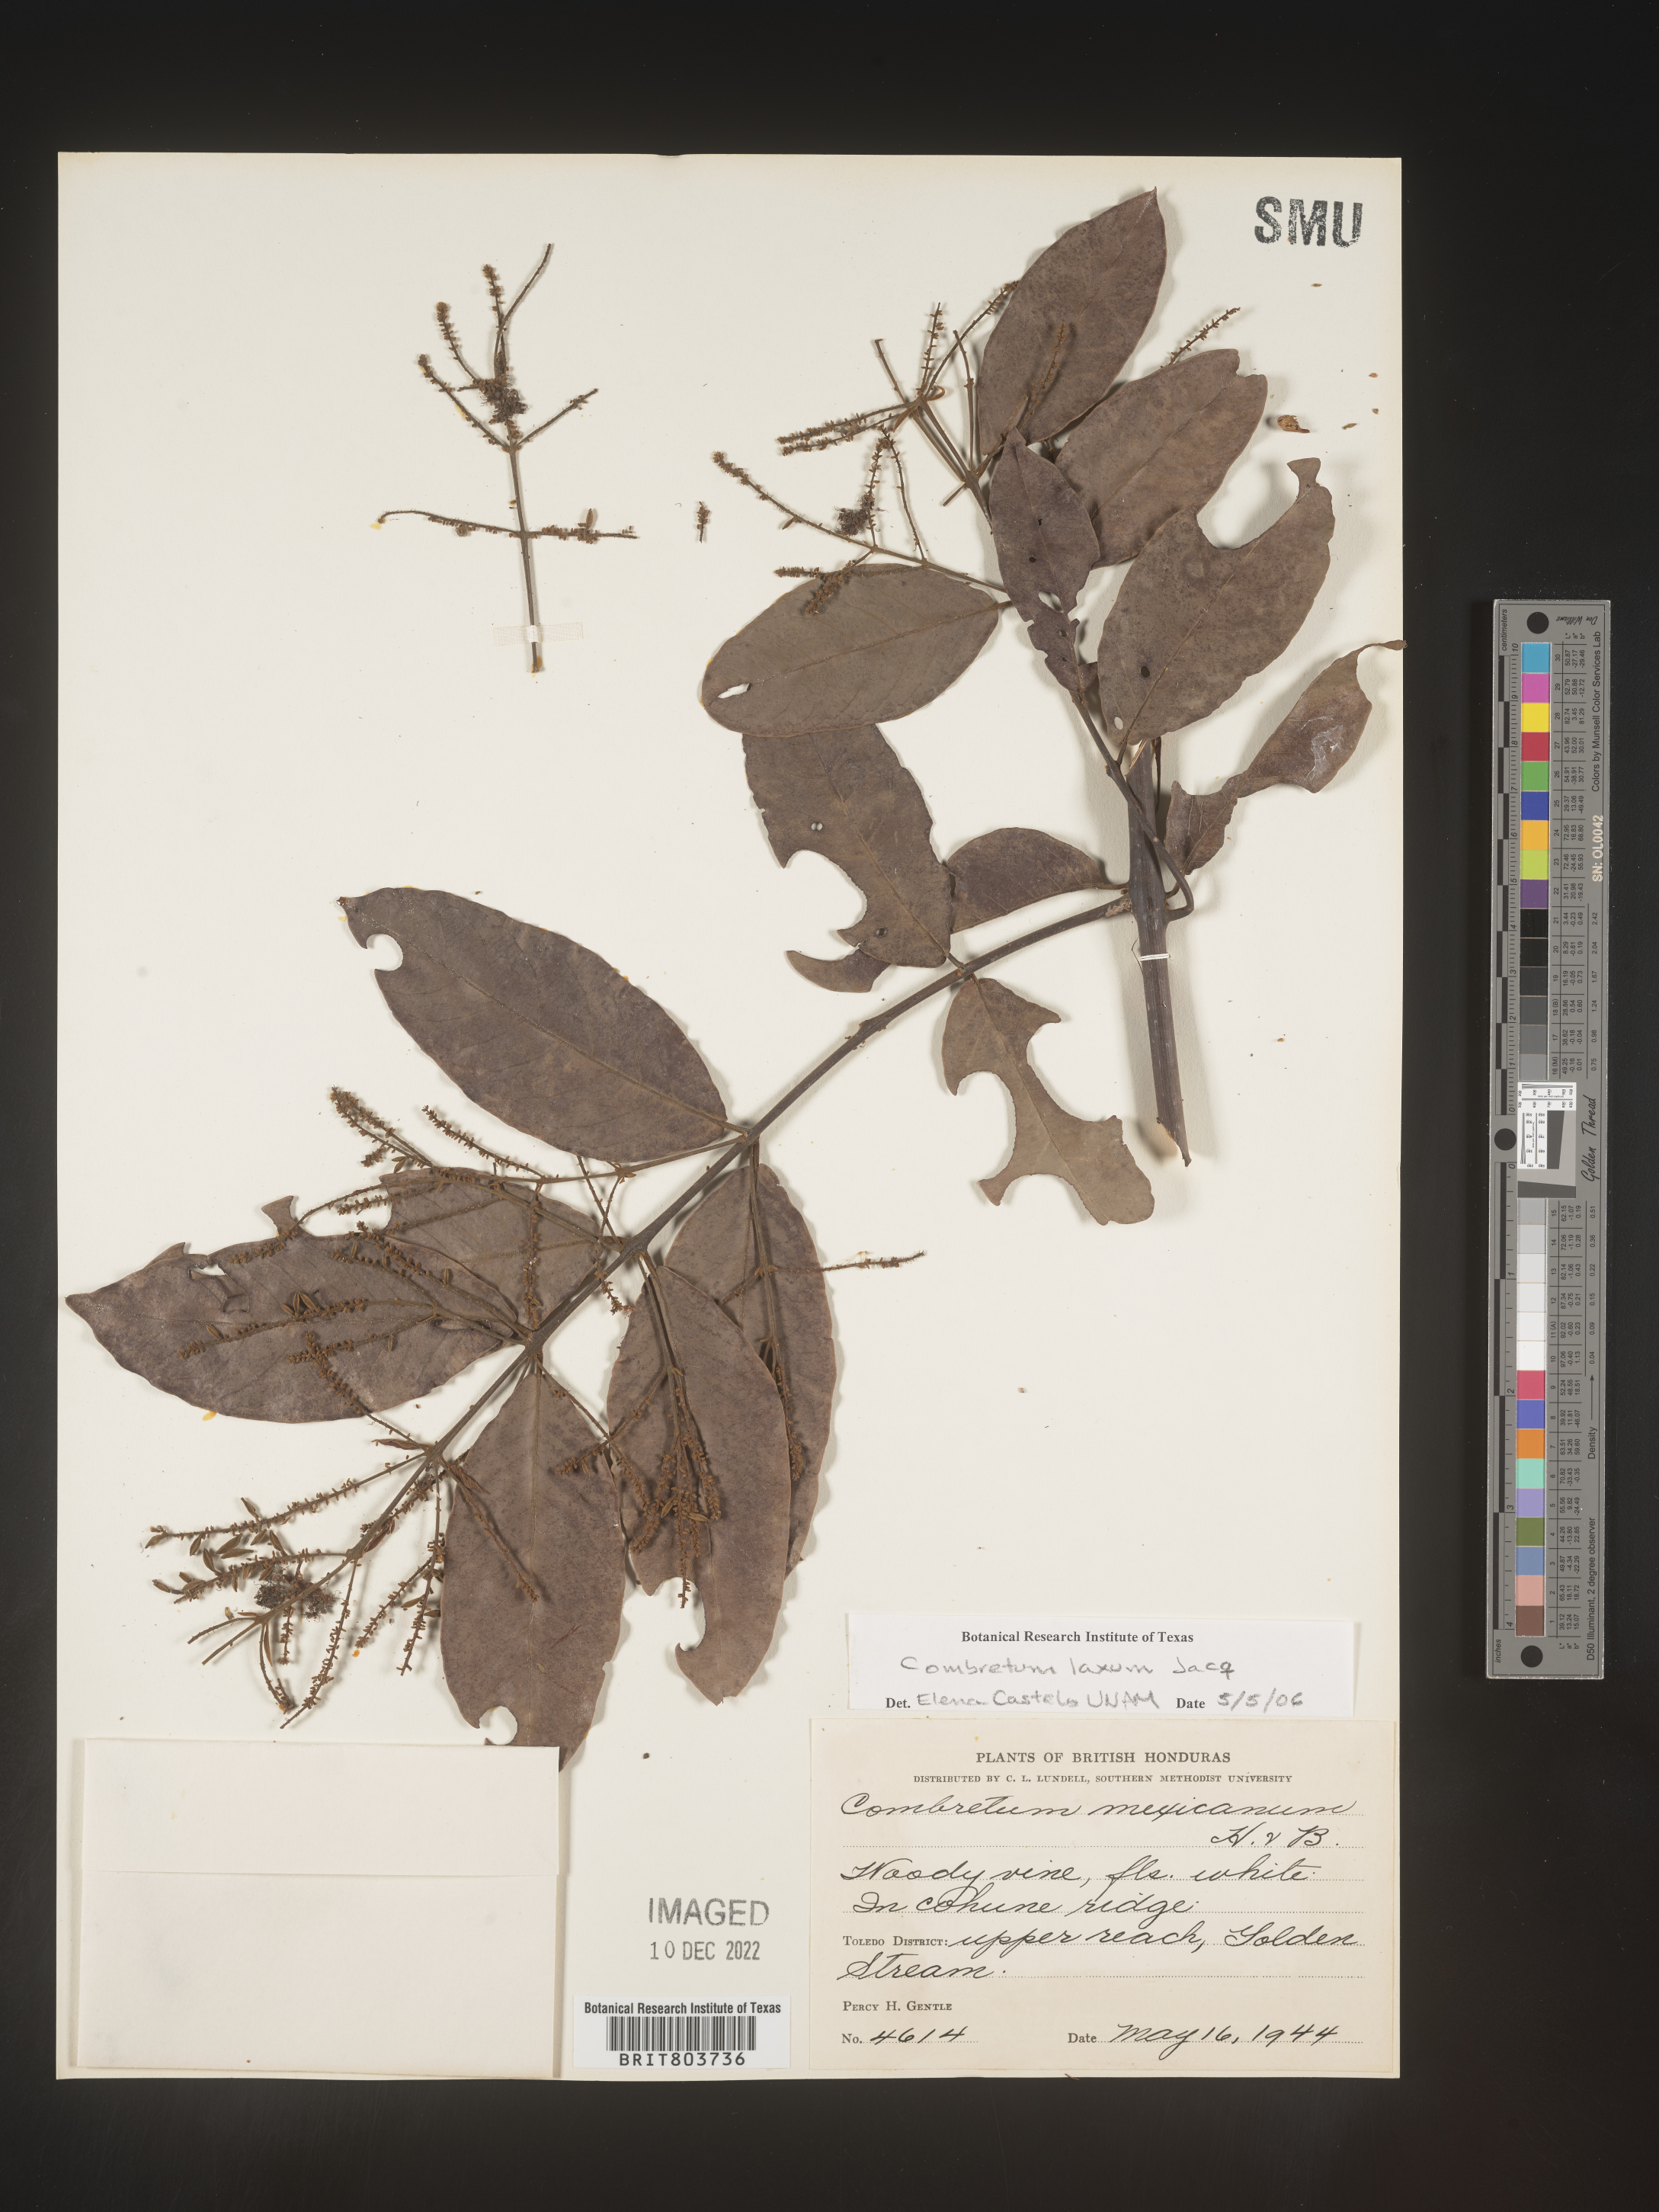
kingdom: Plantae
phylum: Tracheophyta
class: Magnoliopsida
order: Myrtales
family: Combretaceae
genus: Combretum
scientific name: Combretum
